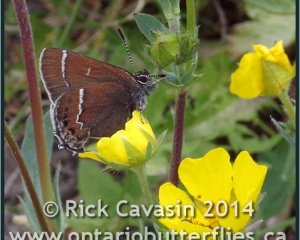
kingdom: Animalia
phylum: Arthropoda
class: Insecta
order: Lepidoptera
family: Lycaenidae
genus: Mitoura
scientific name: Mitoura spinetorum
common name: Thicket Hairstreak
